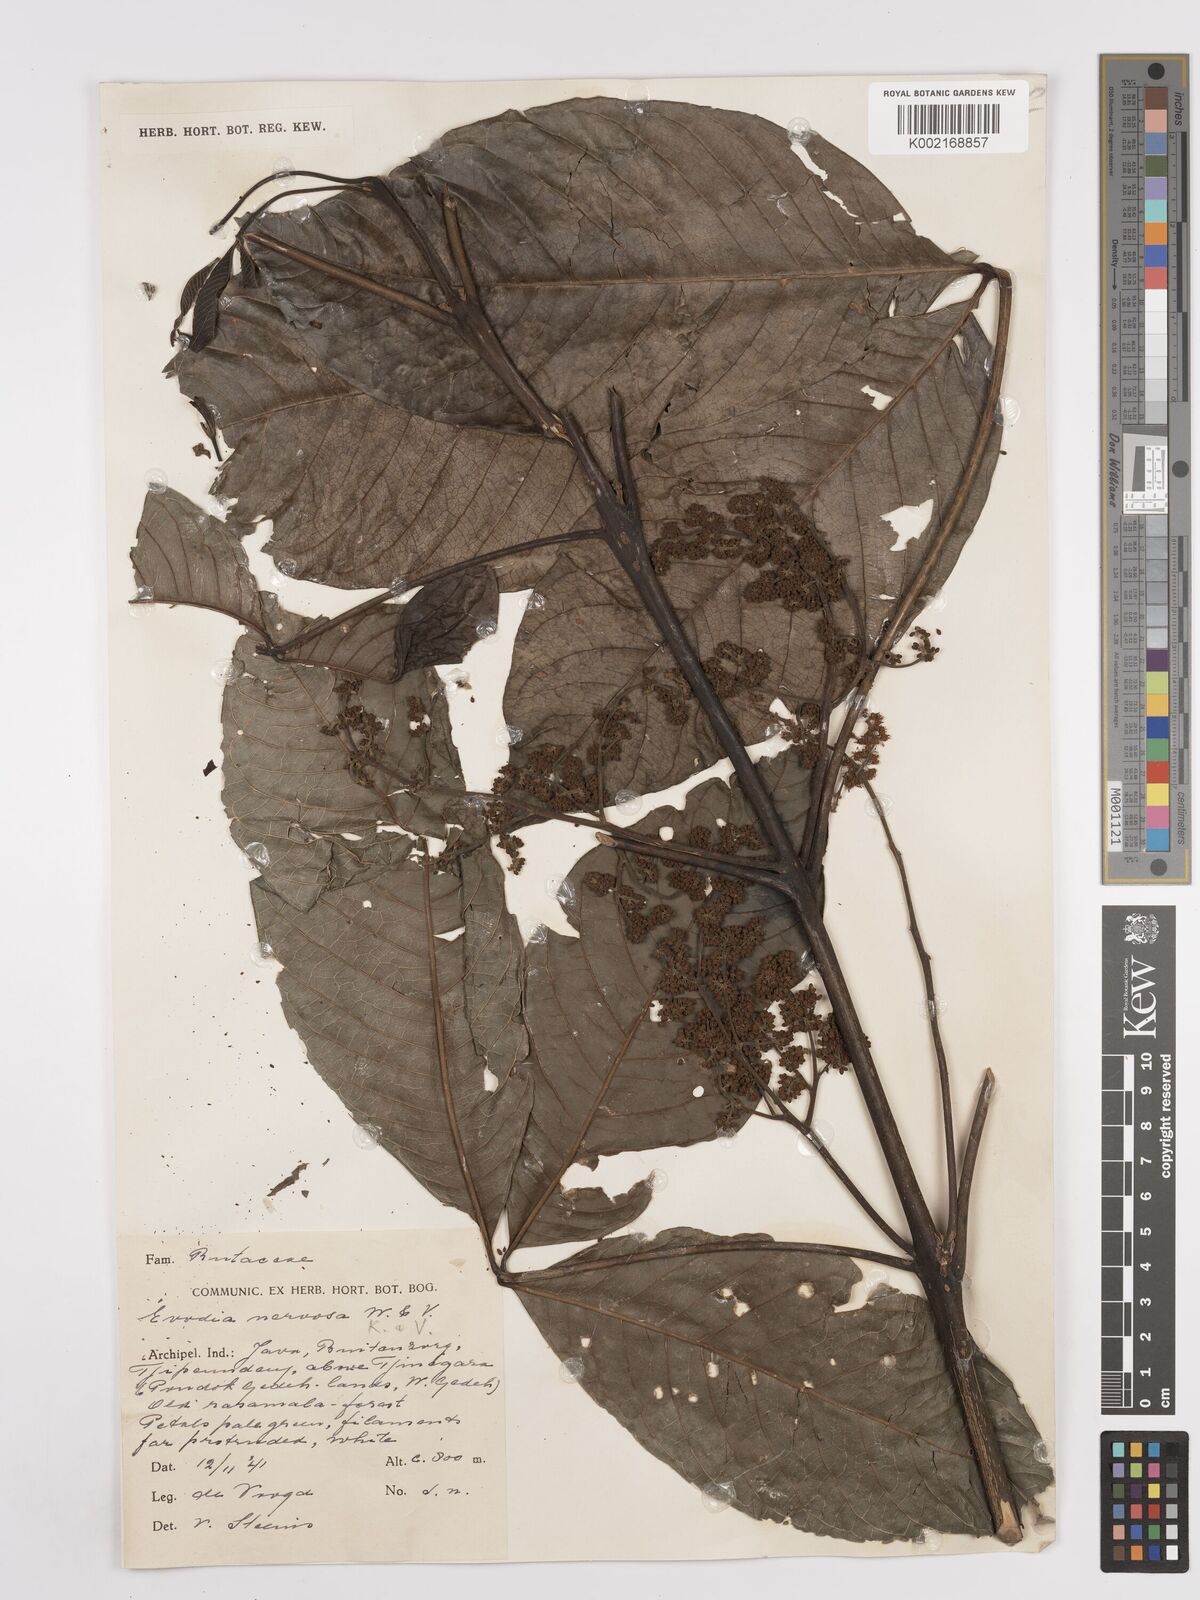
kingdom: Plantae
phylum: Tracheophyta
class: Magnoliopsida
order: Sapindales
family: Rutaceae
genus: Melicope
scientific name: Melicope accedens
